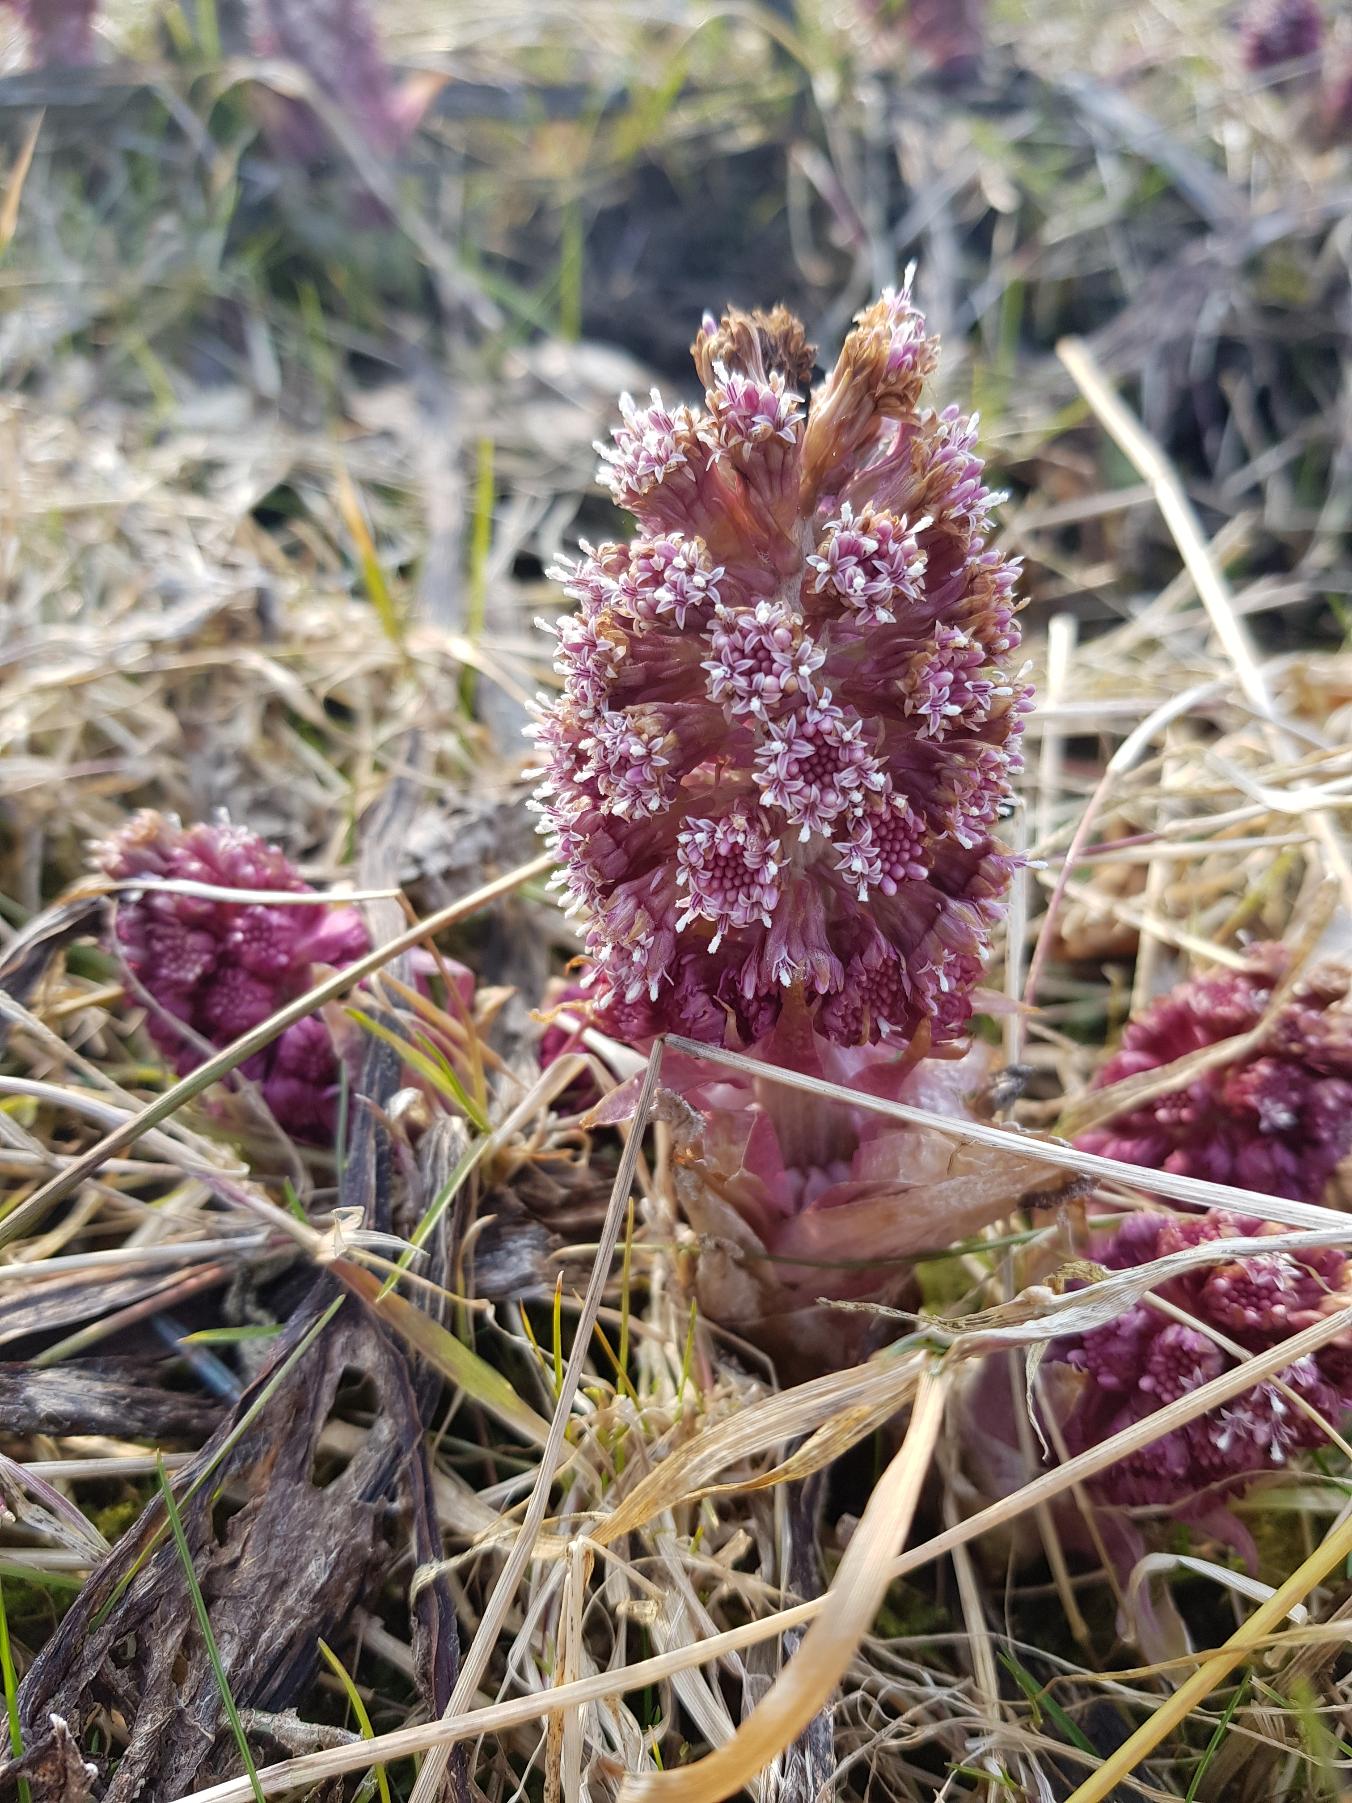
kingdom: Plantae
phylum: Tracheophyta
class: Magnoliopsida
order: Asterales
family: Asteraceae
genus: Petasites
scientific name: Petasites hybridus
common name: Rød hestehov
